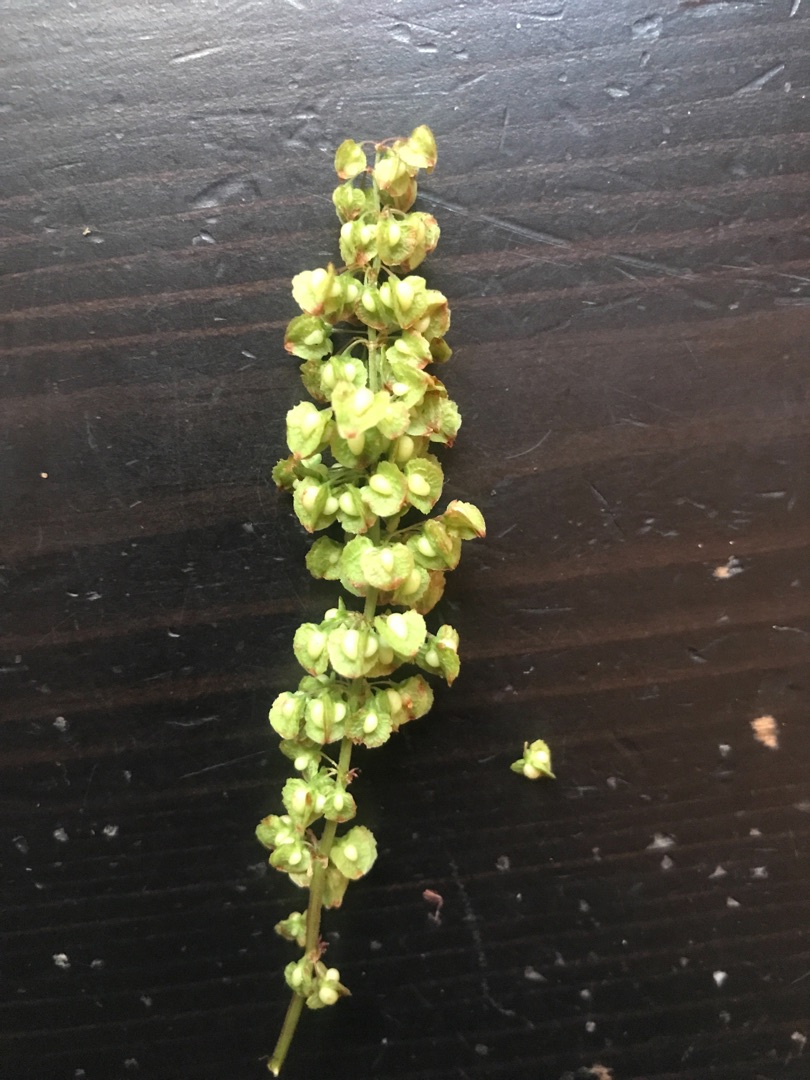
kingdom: Plantae
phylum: Tracheophyta
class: Magnoliopsida
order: Caryophyllales
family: Polygonaceae
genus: Rumex
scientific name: Rumex crispus
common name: Kruset skræppe
